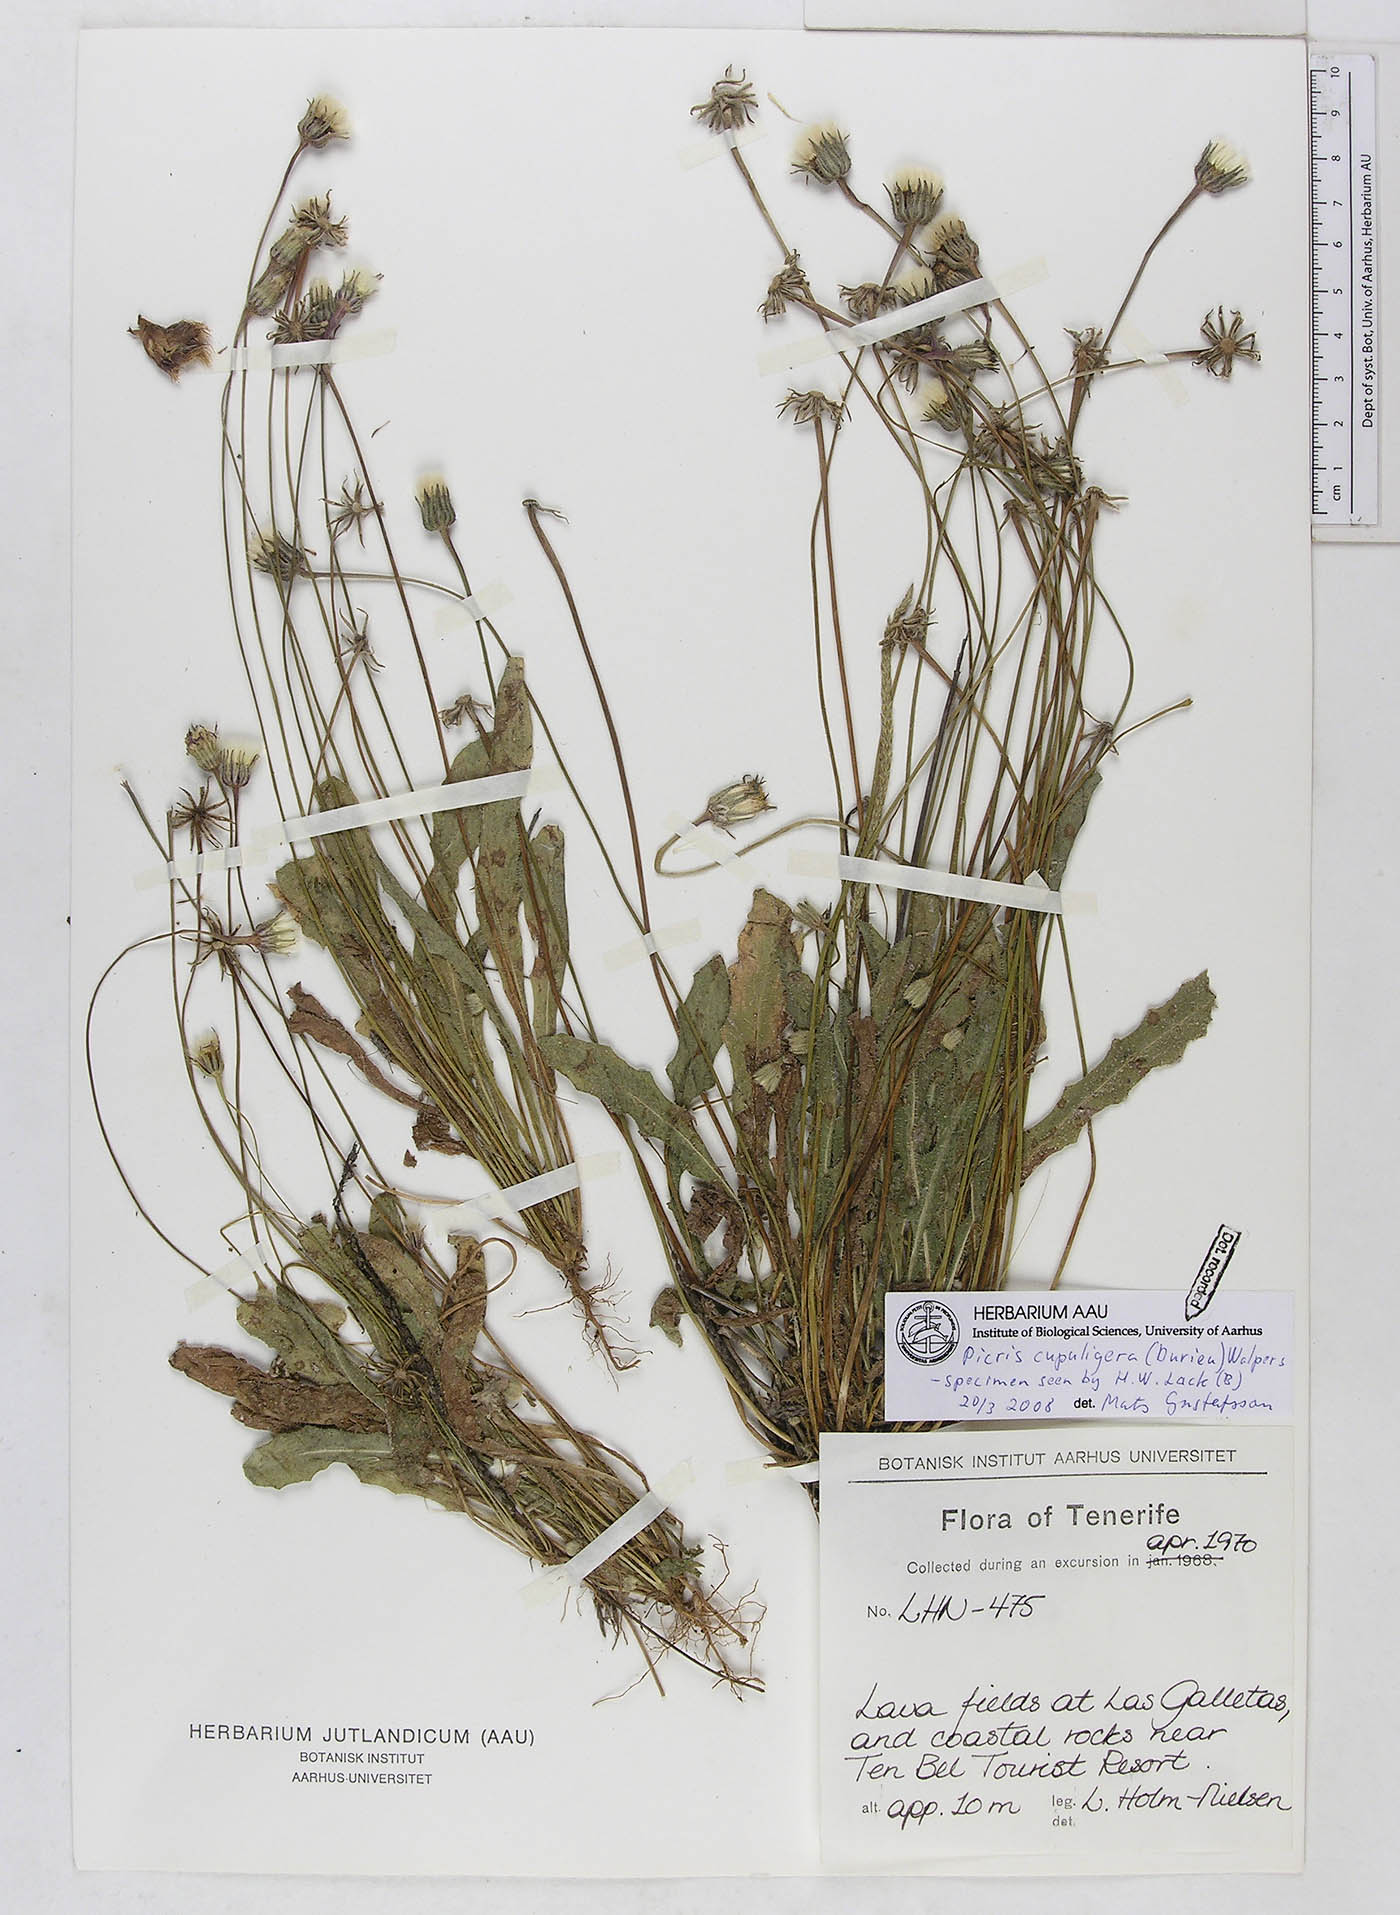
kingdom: Plantae
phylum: Tracheophyta
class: Magnoliopsida
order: Asterales
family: Asteraceae
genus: Picris
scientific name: Picris cupuligera
